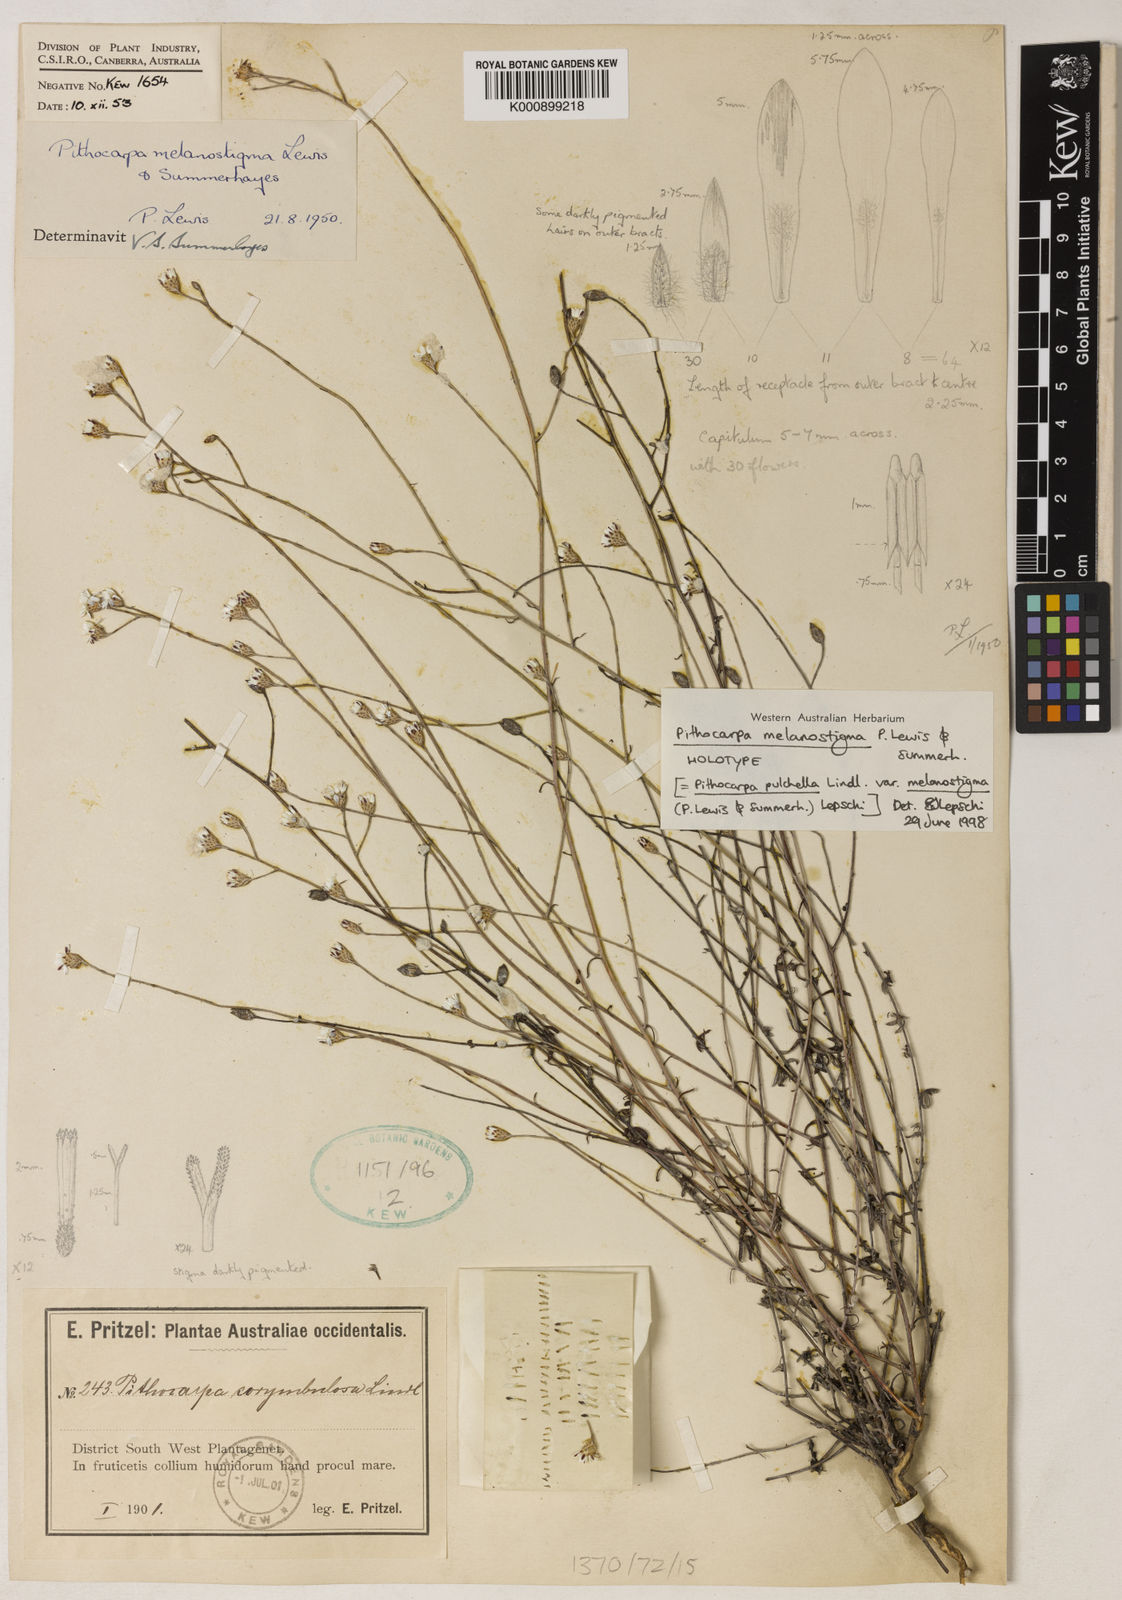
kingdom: Plantae
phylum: Tracheophyta
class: Magnoliopsida
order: Asterales
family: Asteraceae
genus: Pithocarpa
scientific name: Pithocarpa pulchella
